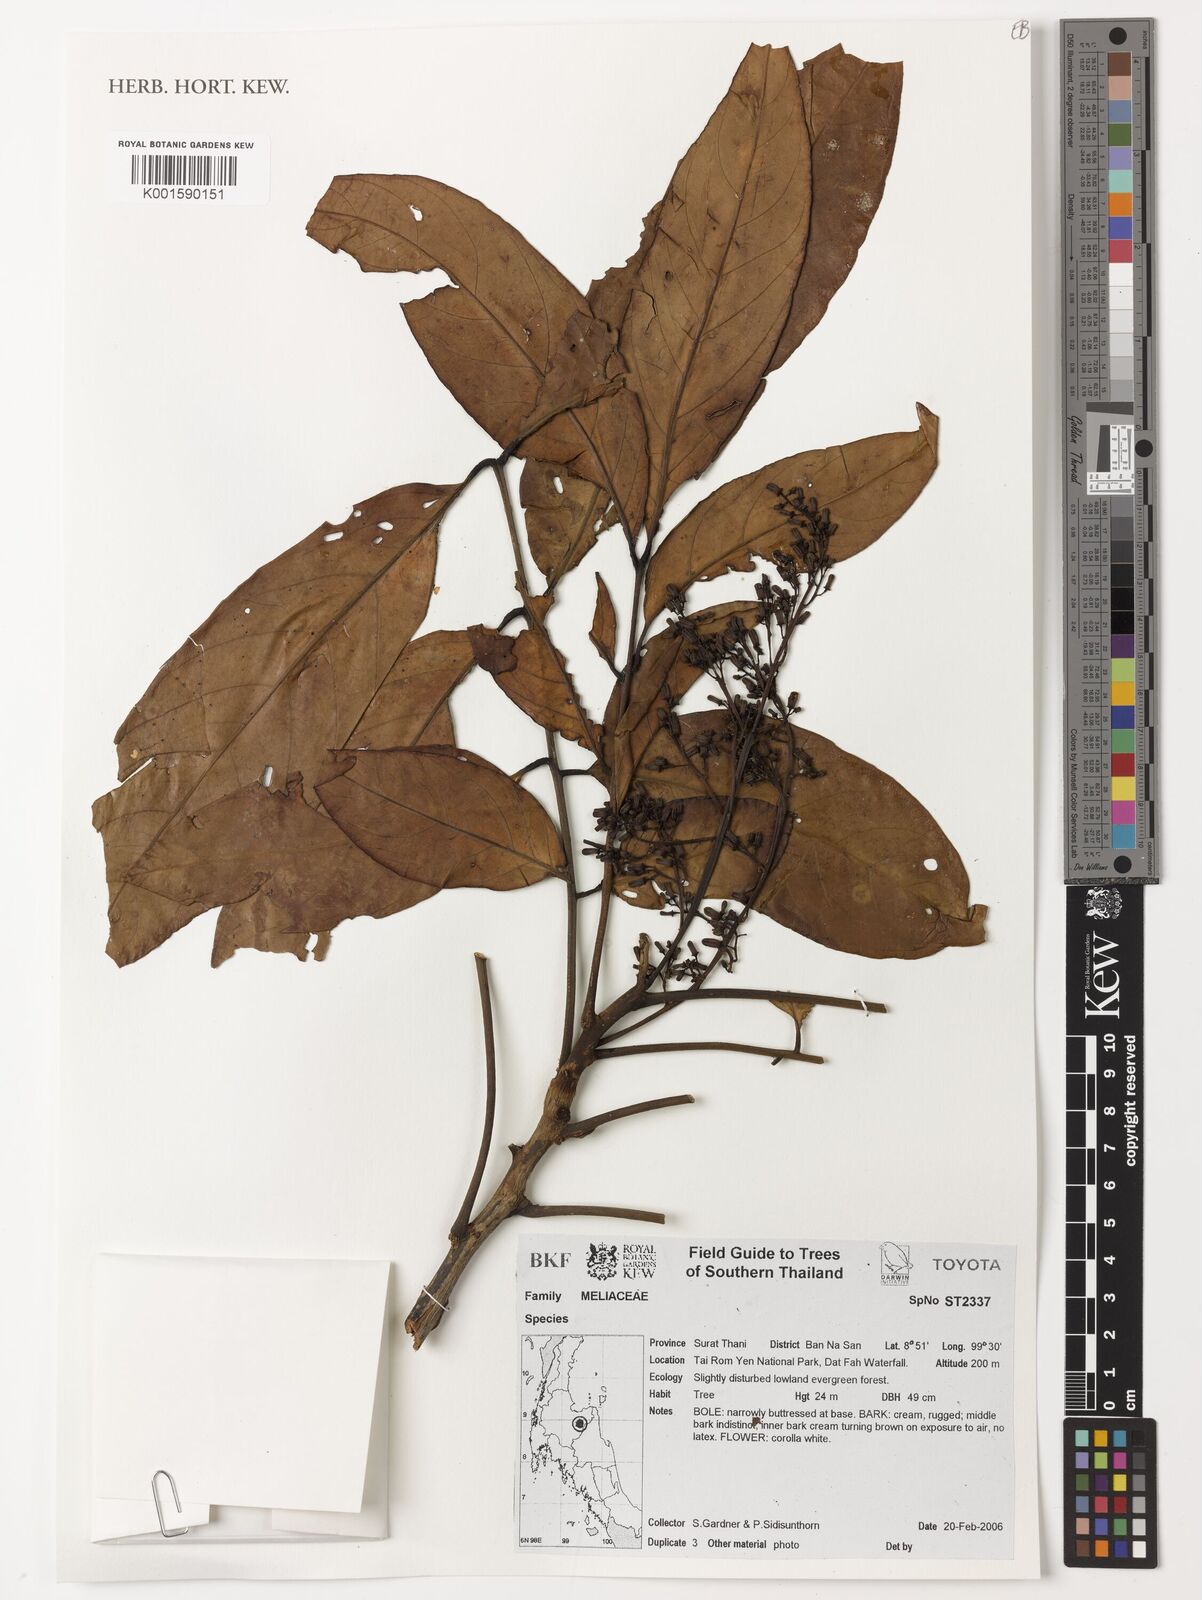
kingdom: Plantae
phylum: Tracheophyta
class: Magnoliopsida
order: Sapindales
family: Meliaceae
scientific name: Meliaceae
